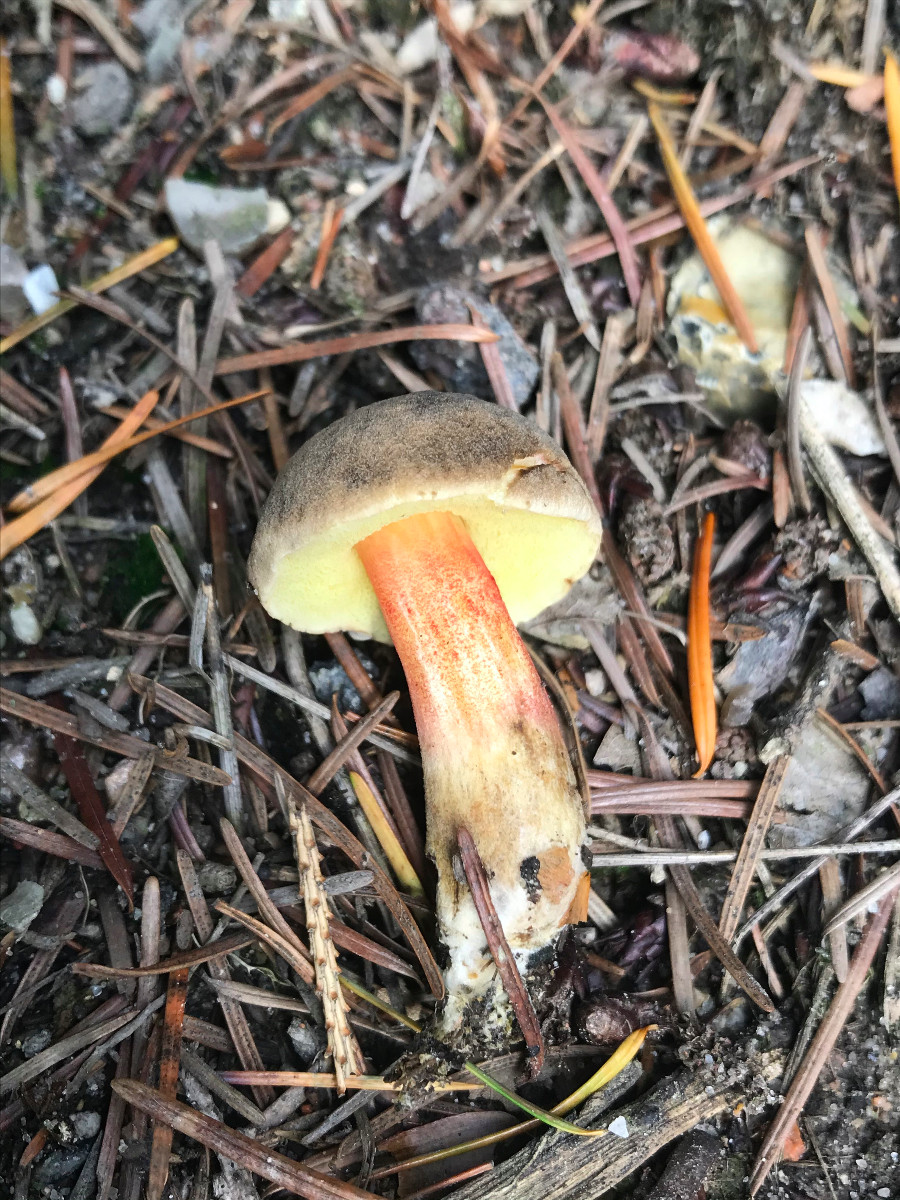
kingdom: Fungi
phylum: Basidiomycota
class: Agaricomycetes
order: Boletales
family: Boletaceae
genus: Xerocomellus
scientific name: Xerocomellus chrysenteron
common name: rødsprukken rørhat
